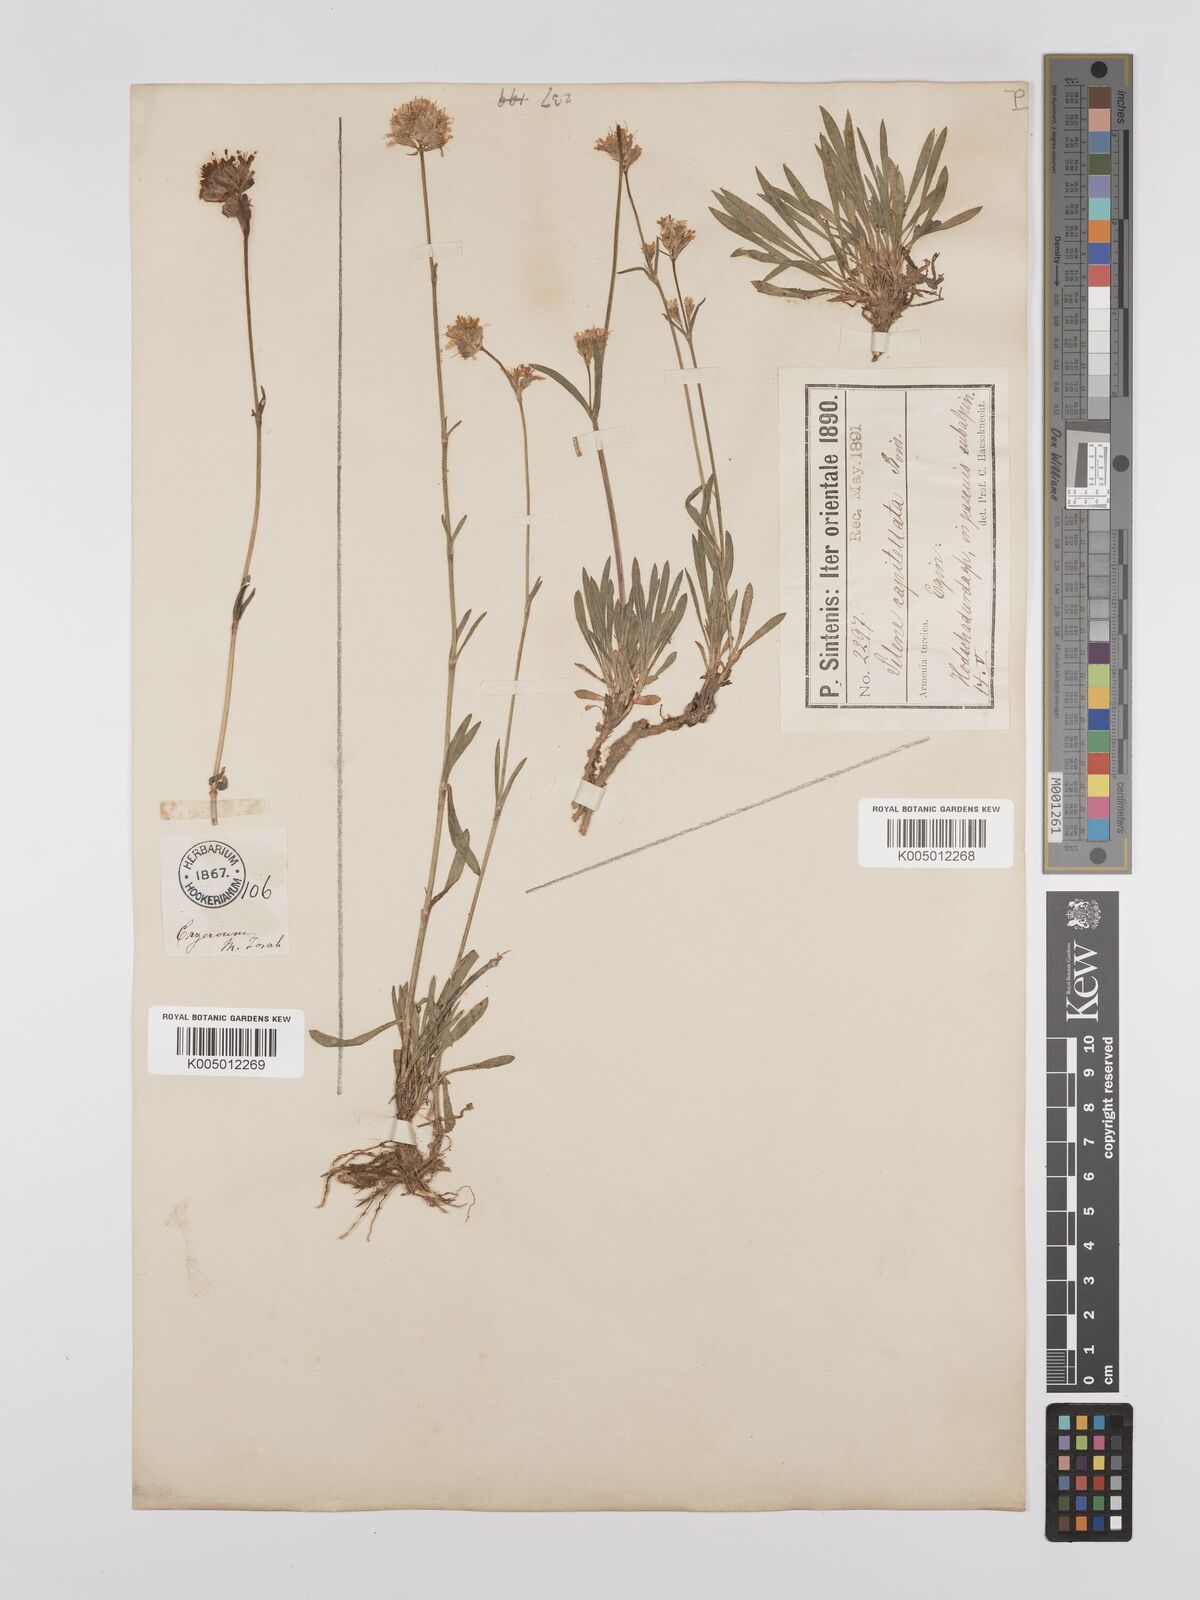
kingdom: Plantae
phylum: Tracheophyta
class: Magnoliopsida
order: Caryophyllales
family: Caryophyllaceae
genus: Silene
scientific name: Silene capitellata
